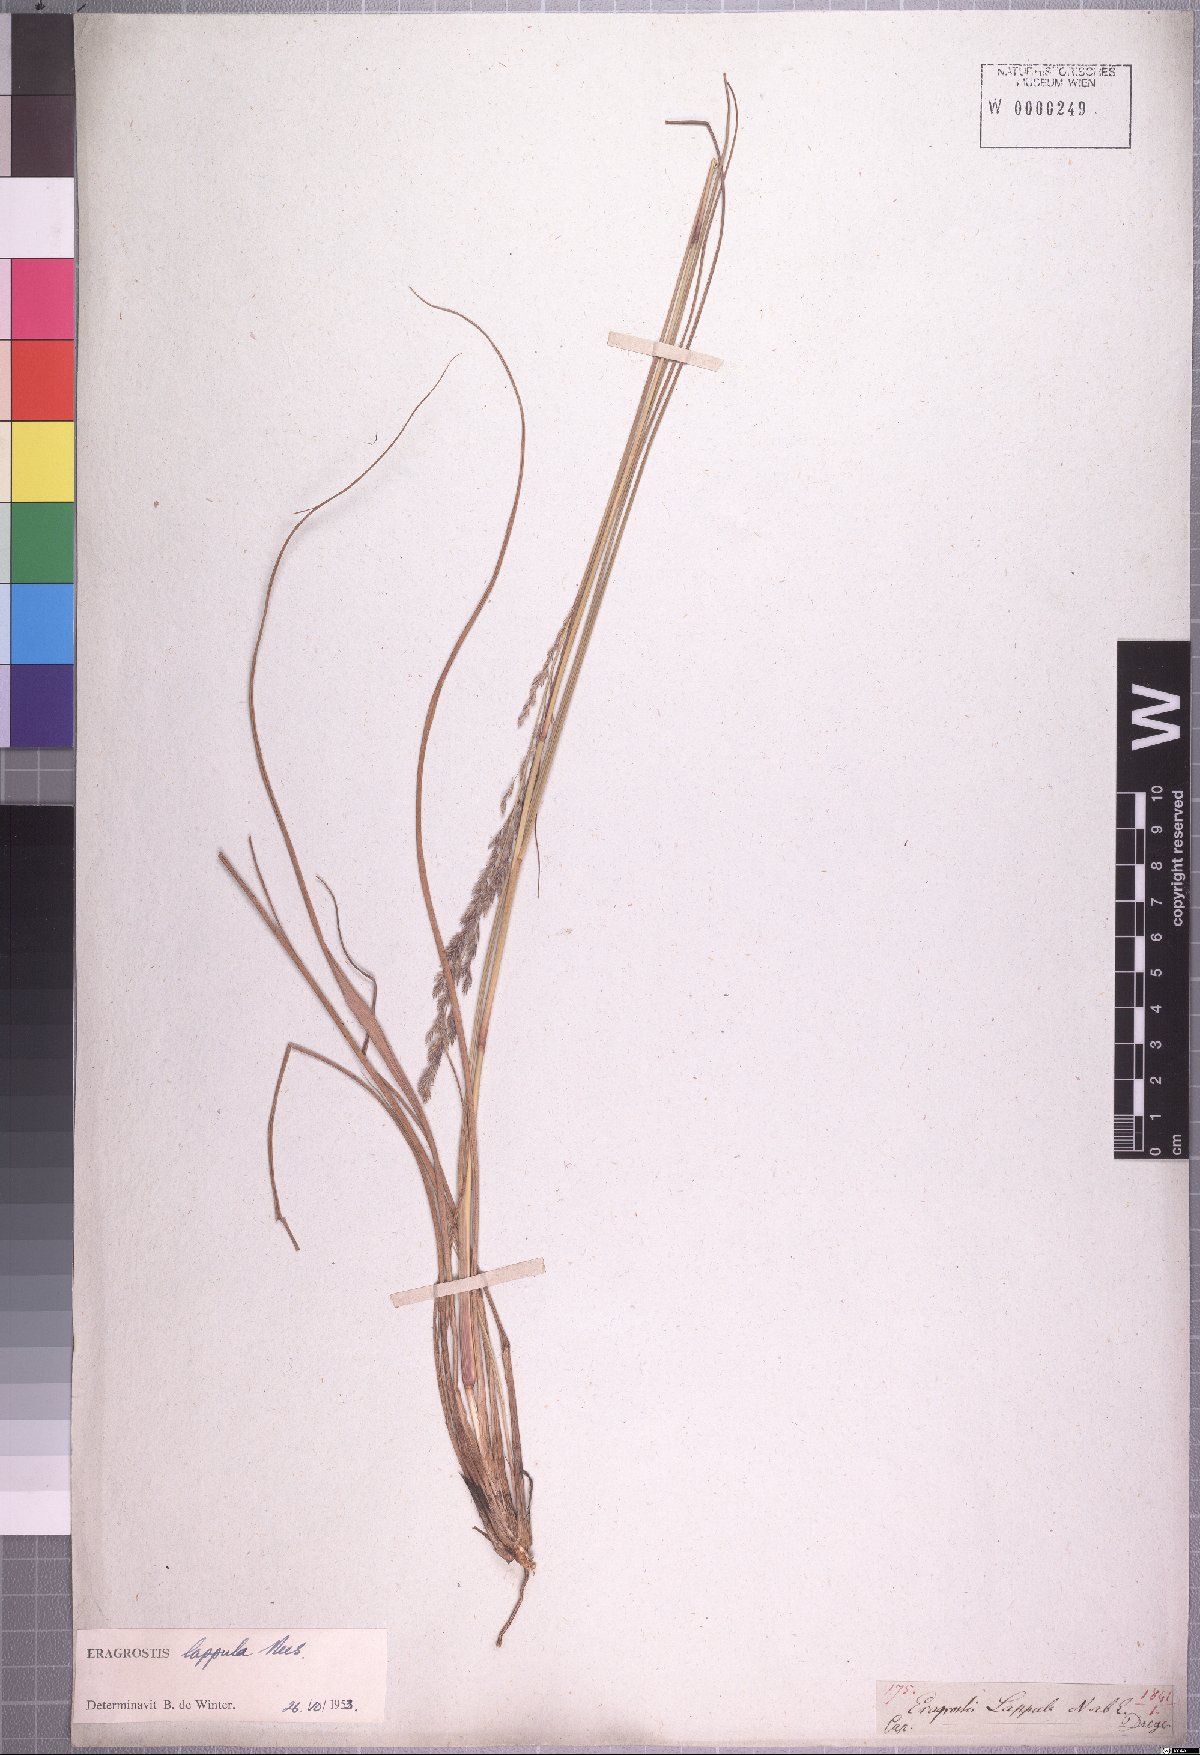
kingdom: Plantae
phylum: Tracheophyta
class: Liliopsida
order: Poales
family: Poaceae
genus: Eragrostis
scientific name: Eragrostis lappula
